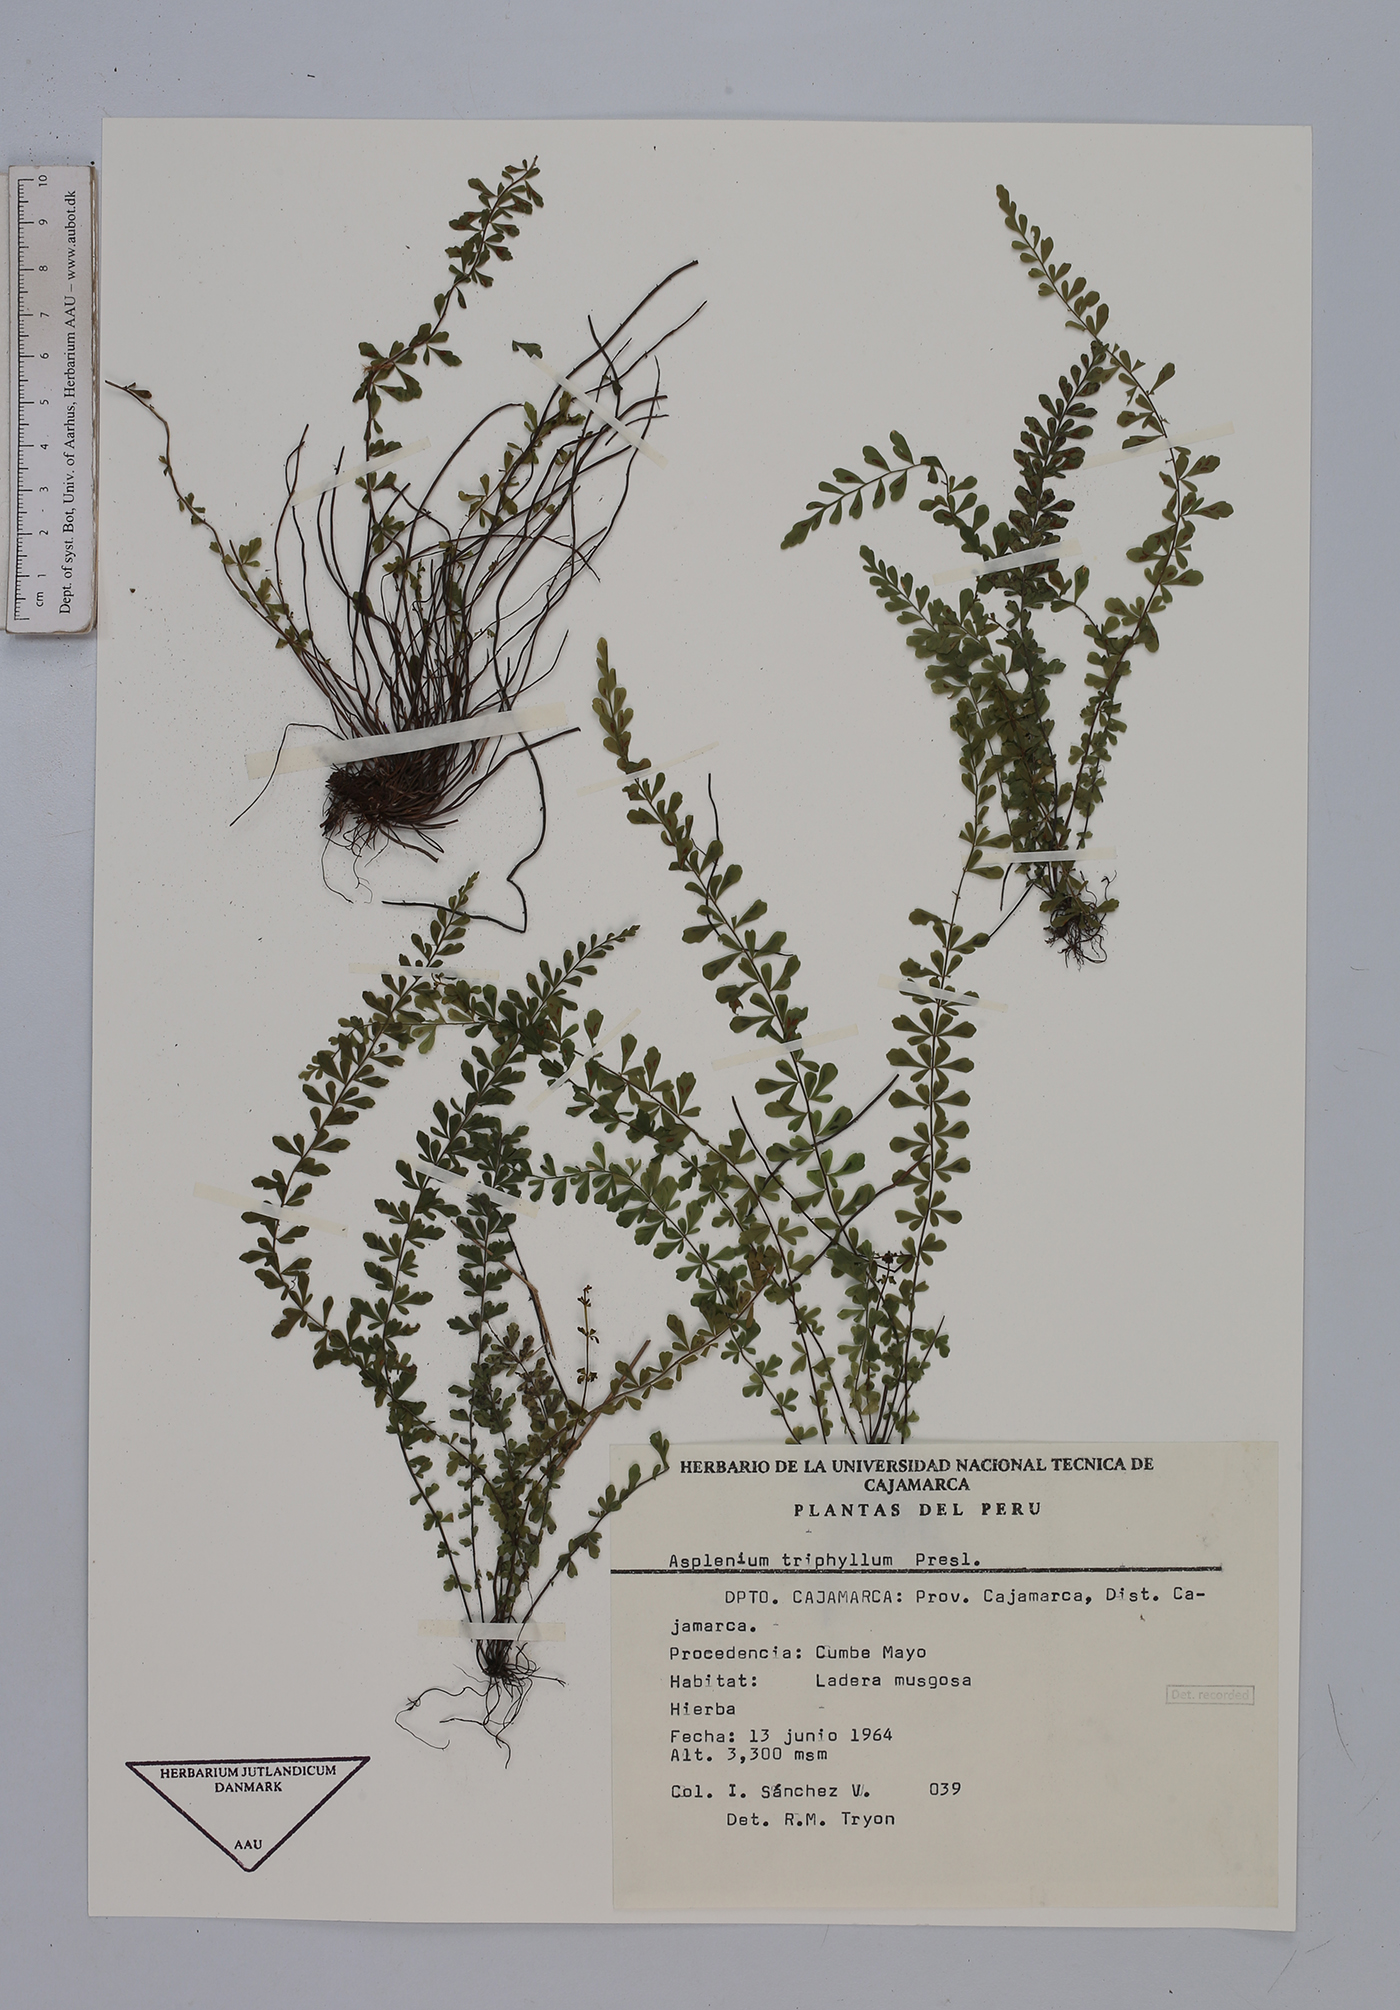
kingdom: Plantae
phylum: Tracheophyta
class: Polypodiopsida
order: Polypodiales
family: Aspleniaceae
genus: Asplenium
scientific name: Asplenium triphyllum
